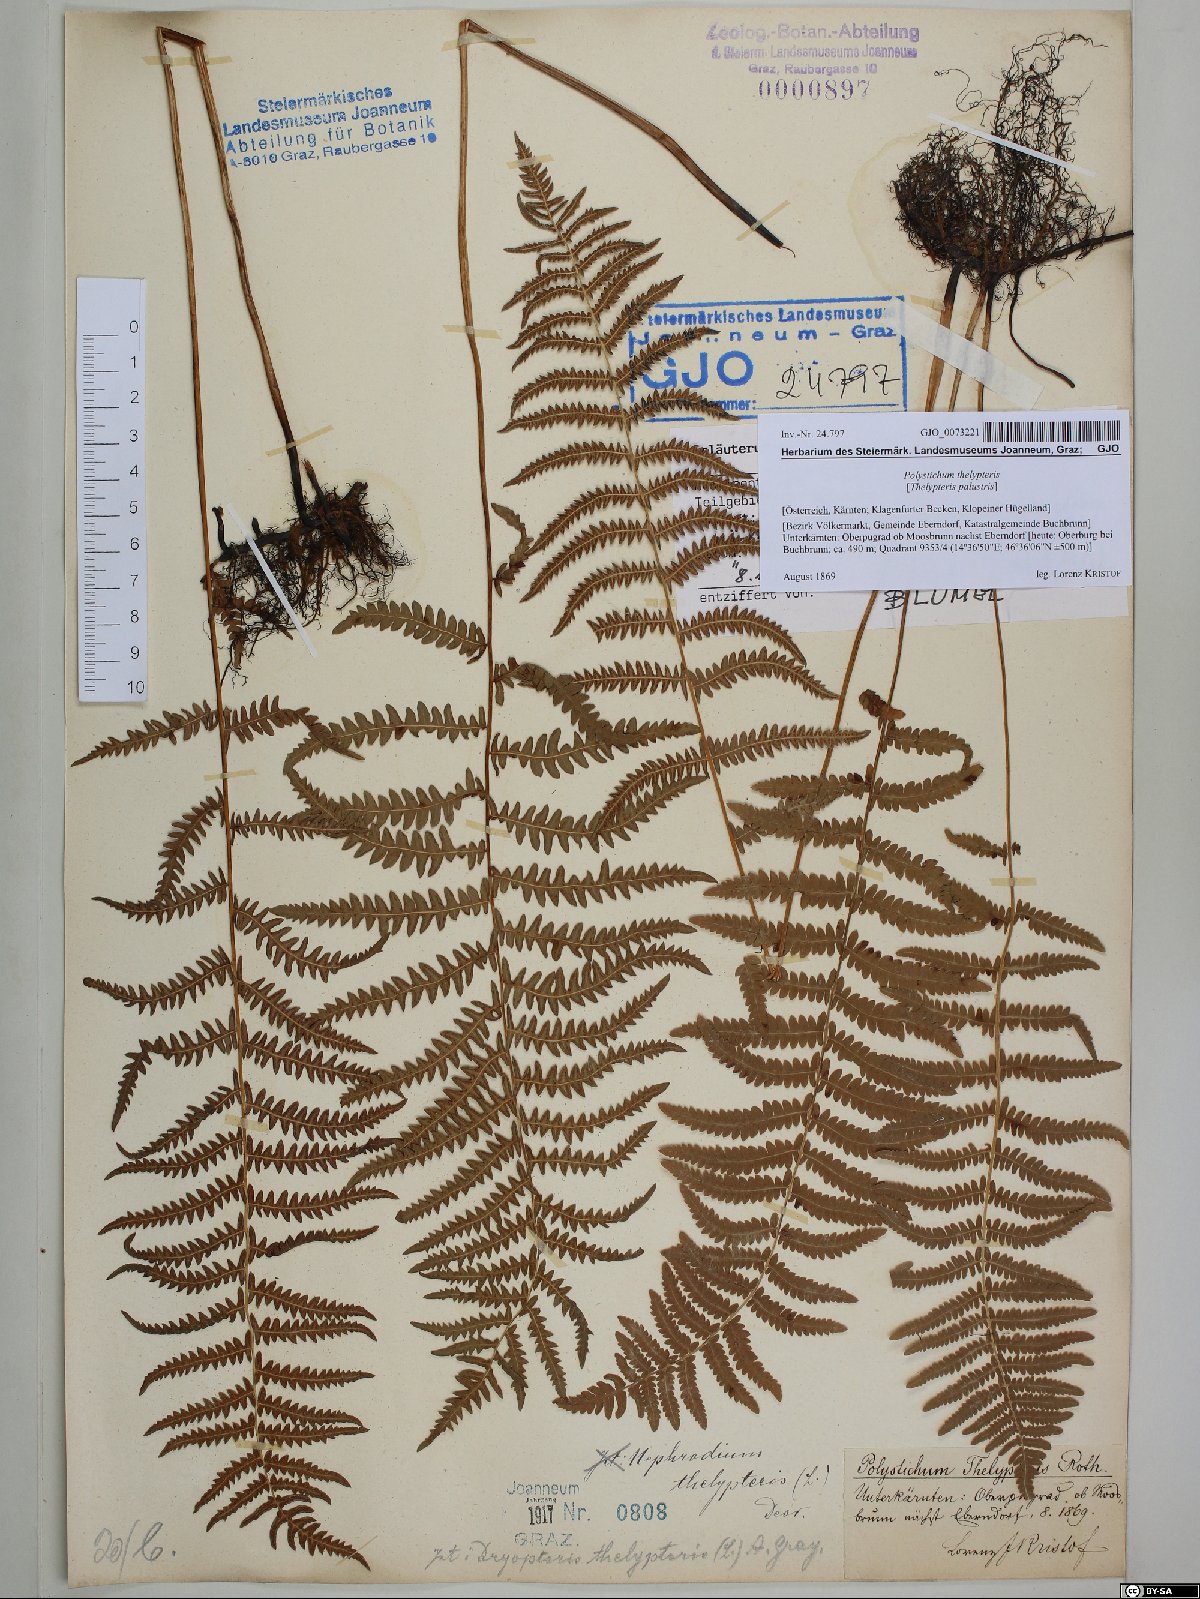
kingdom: Plantae
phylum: Tracheophyta
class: Polypodiopsida
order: Polypodiales
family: Thelypteridaceae
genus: Thelypteris
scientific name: Thelypteris palustris
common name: Marsh fern
